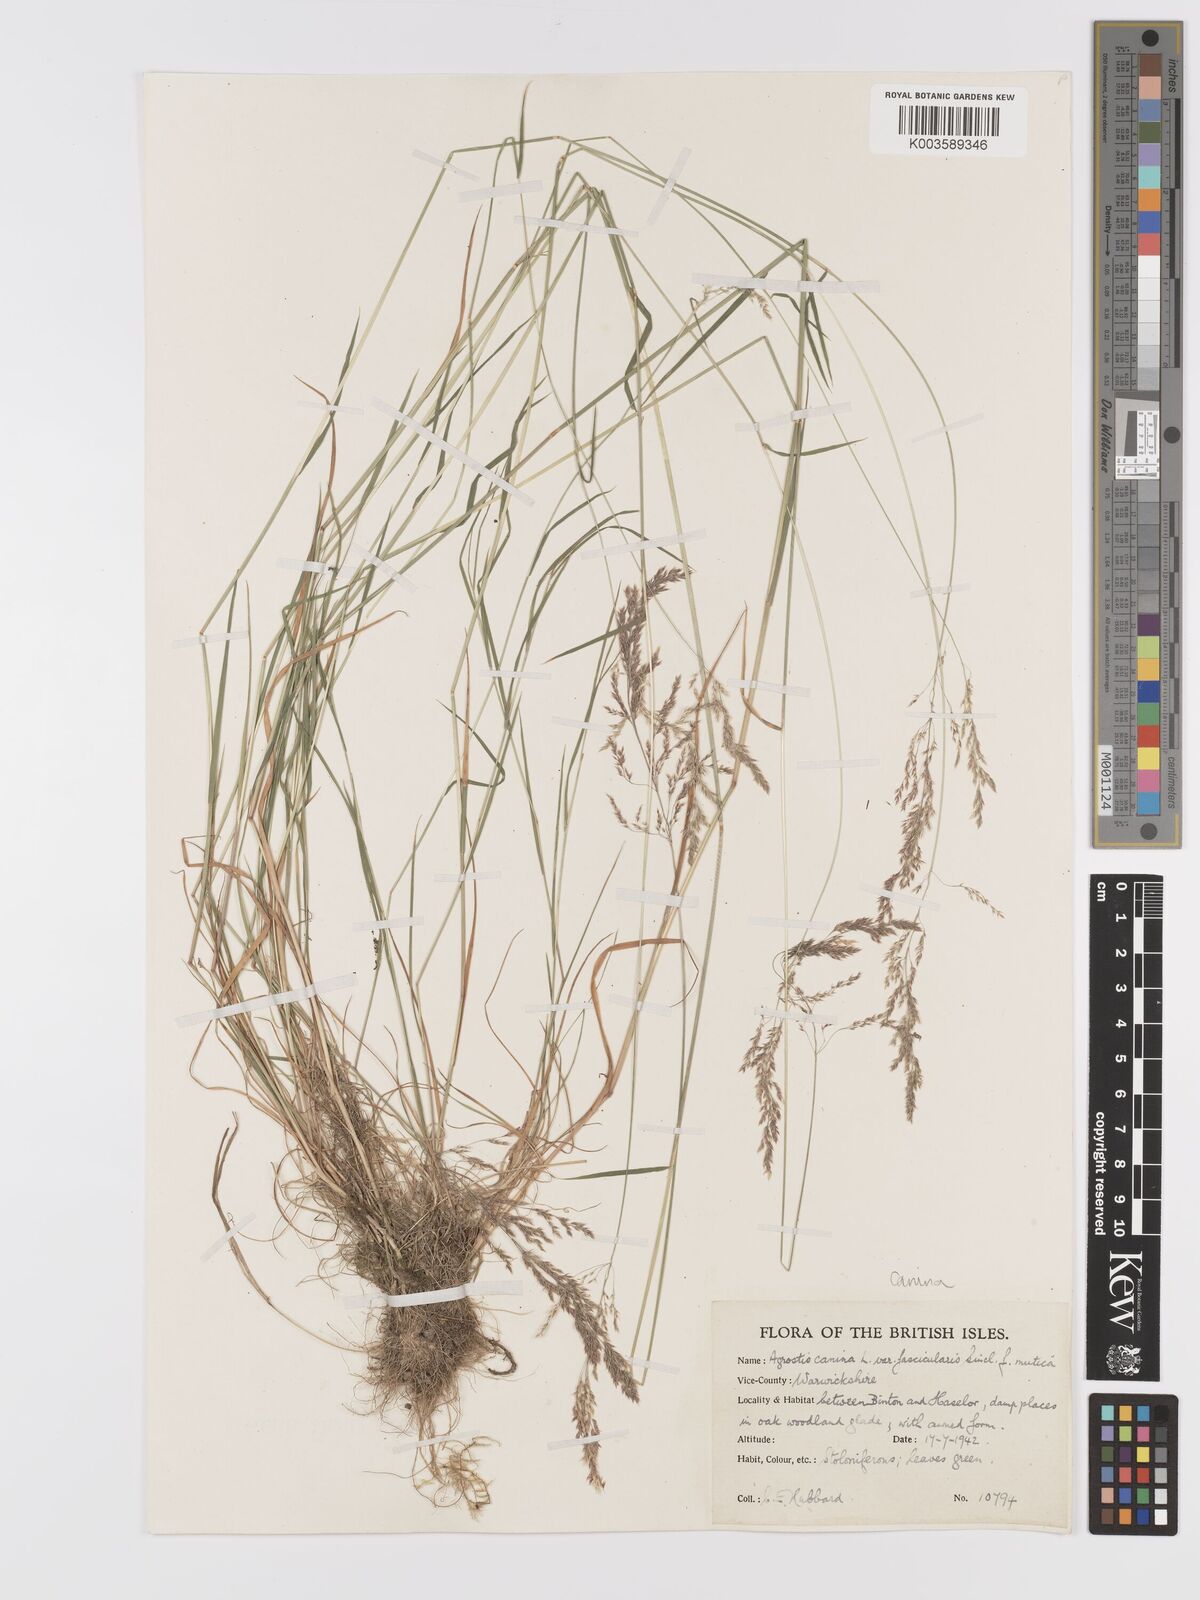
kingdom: Plantae
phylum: Tracheophyta
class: Liliopsida
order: Poales
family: Poaceae
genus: Agrostis
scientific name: Agrostis canina
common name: Velvet bent
